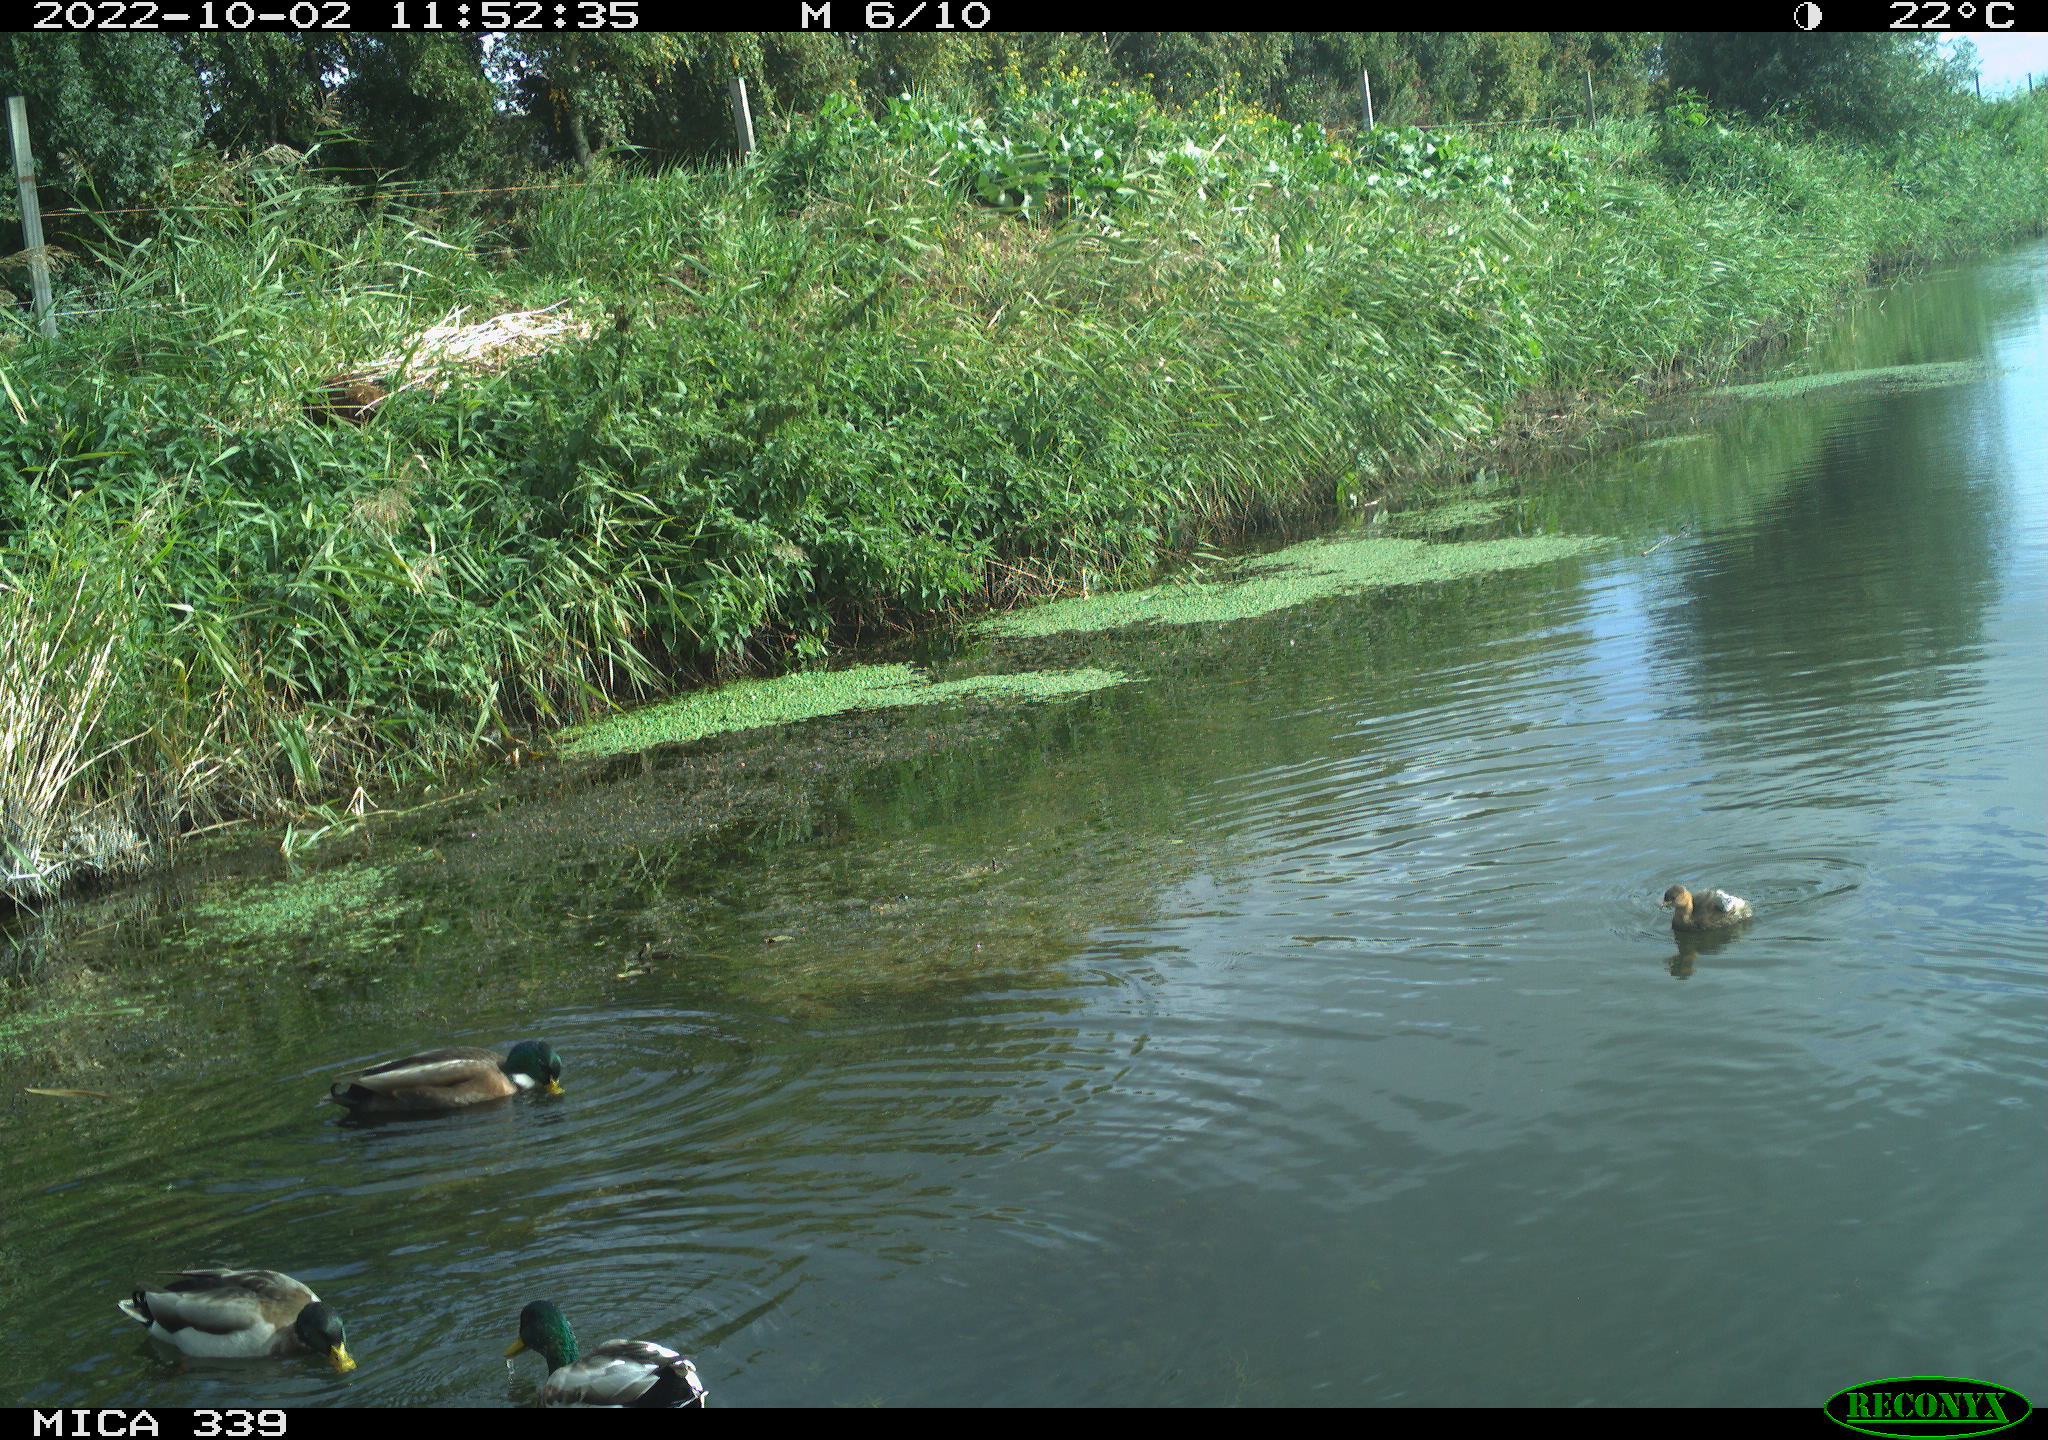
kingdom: Animalia
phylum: Chordata
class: Aves
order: Anseriformes
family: Anatidae
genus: Anas
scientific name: Anas platyrhynchos
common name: Mallard
